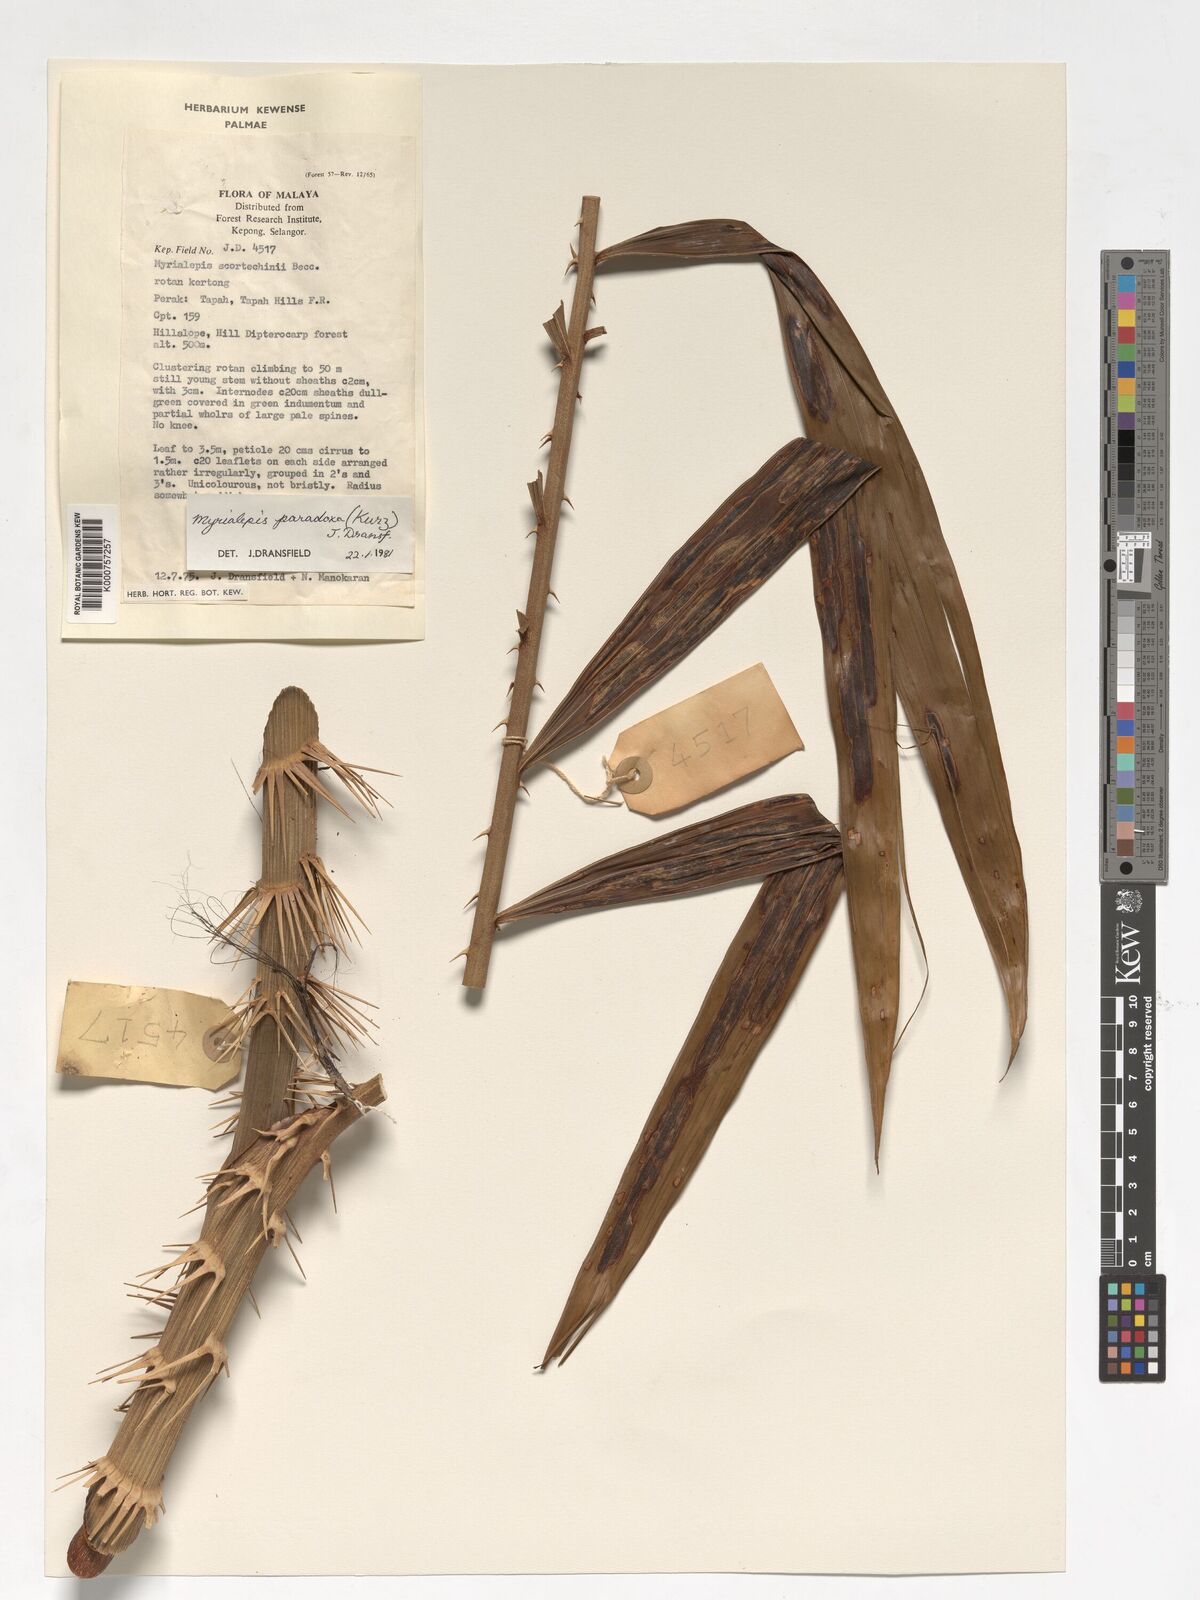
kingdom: Plantae
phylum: Tracheophyta
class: Liliopsida
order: Arecales
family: Arecaceae
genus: Myrialepis
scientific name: Myrialepis paradoxa
